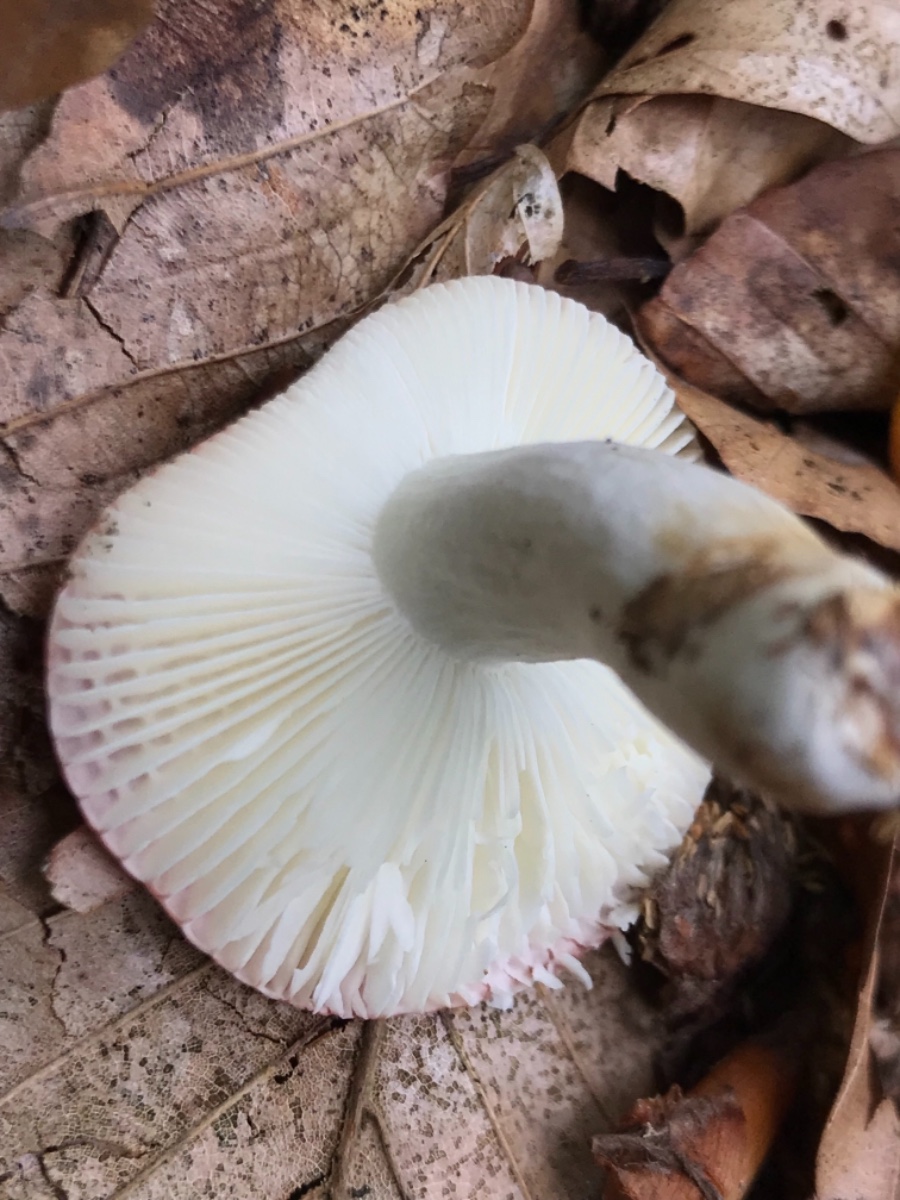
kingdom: Fungi
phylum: Basidiomycota
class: Agaricomycetes
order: Russulales
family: Russulaceae
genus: Russula
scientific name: Russula nobilis
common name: lille gift-skørhat
